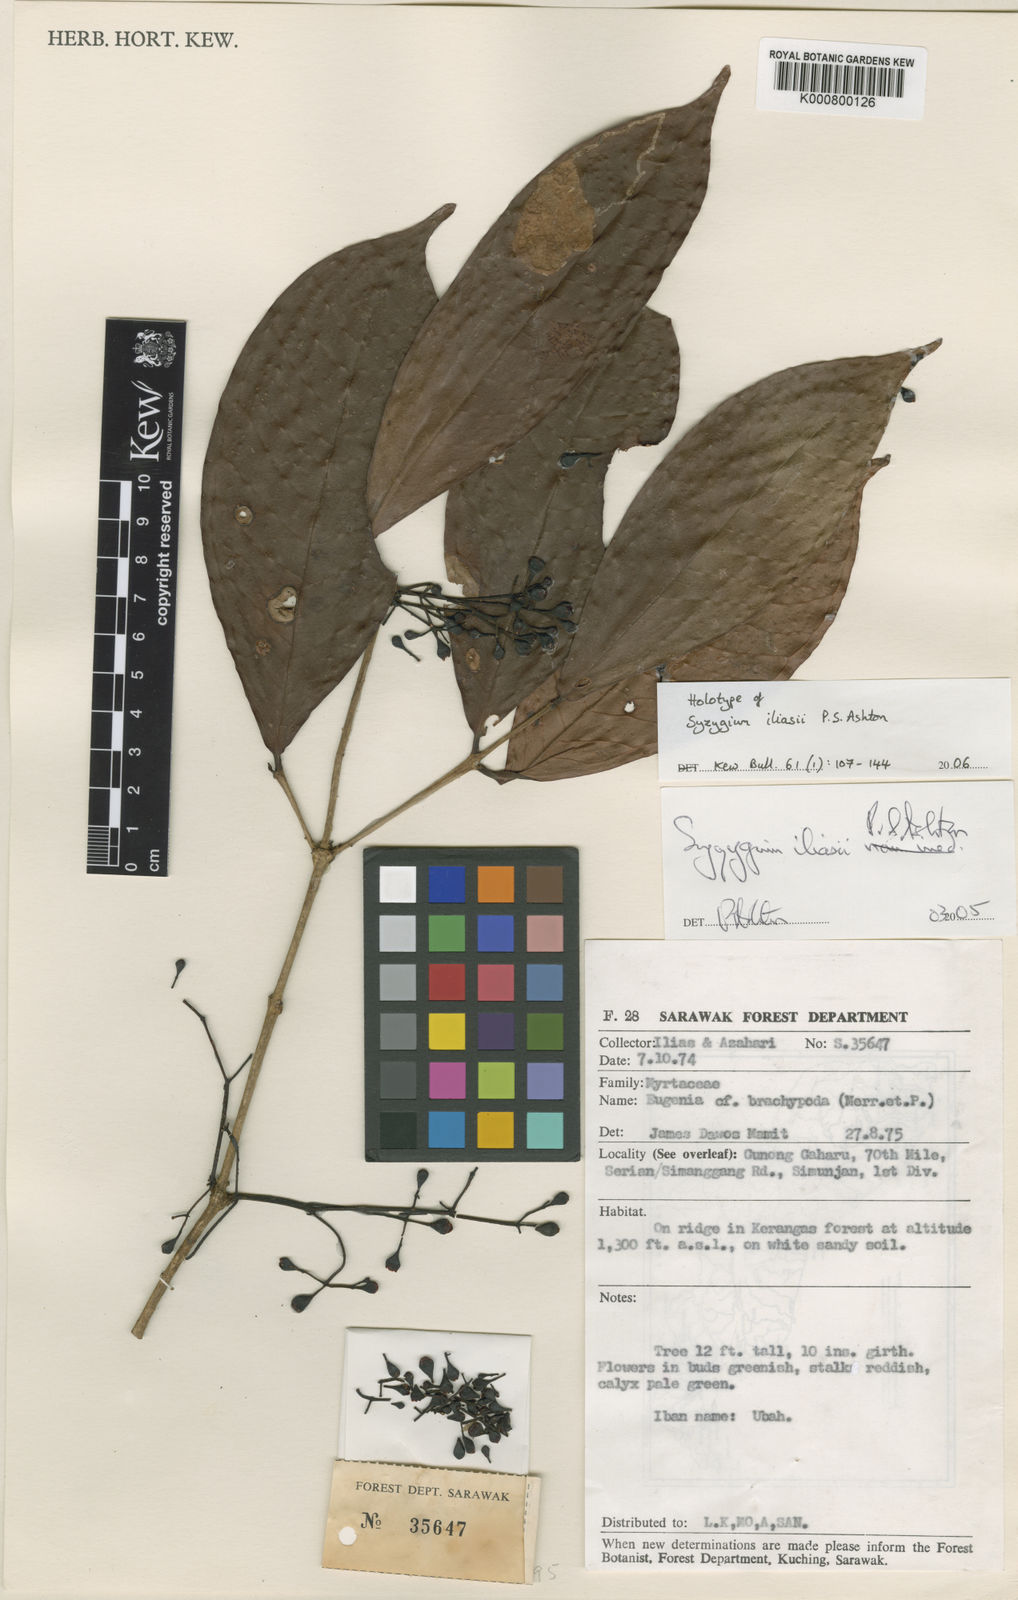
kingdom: Plantae
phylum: Tracheophyta
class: Magnoliopsida
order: Myrtales
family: Myrtaceae
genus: Syzygium
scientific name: Syzygium iliasii
